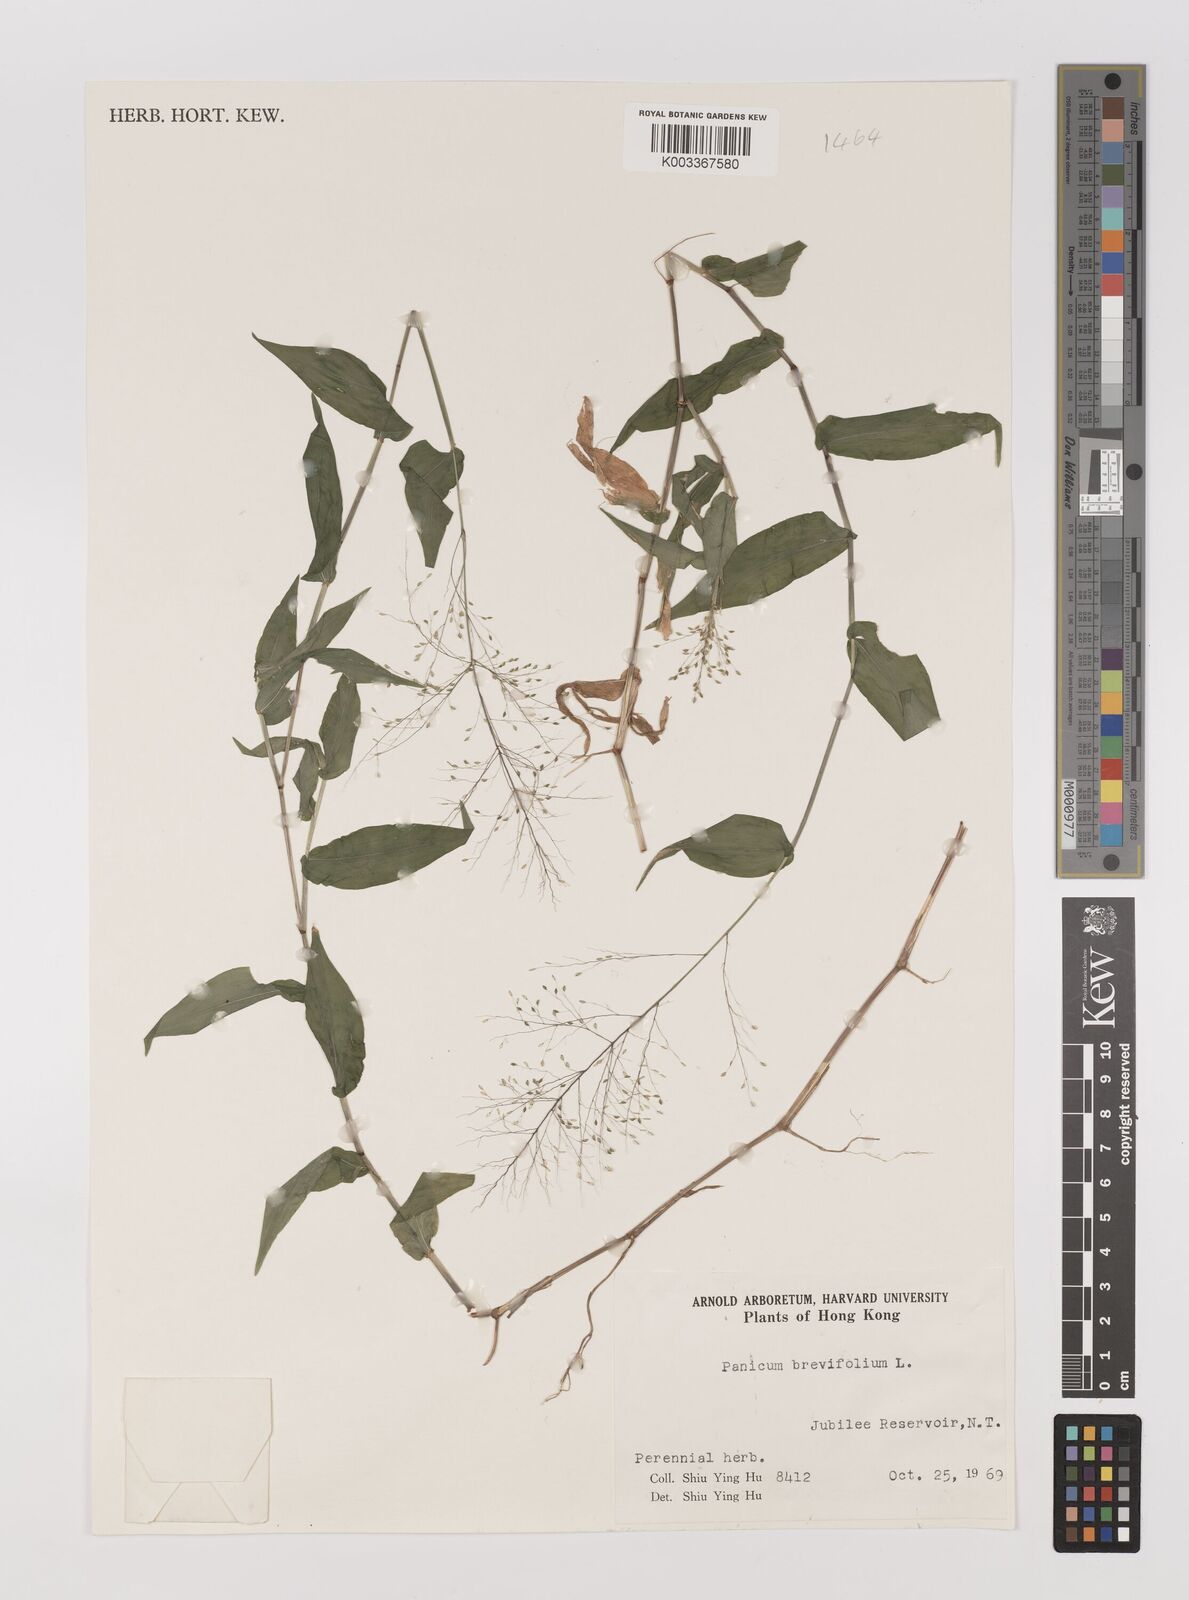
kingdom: Plantae
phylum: Tracheophyta
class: Liliopsida
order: Poales
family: Poaceae
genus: Panicum
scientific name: Panicum brevifolium
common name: Shortleaf panic grass
